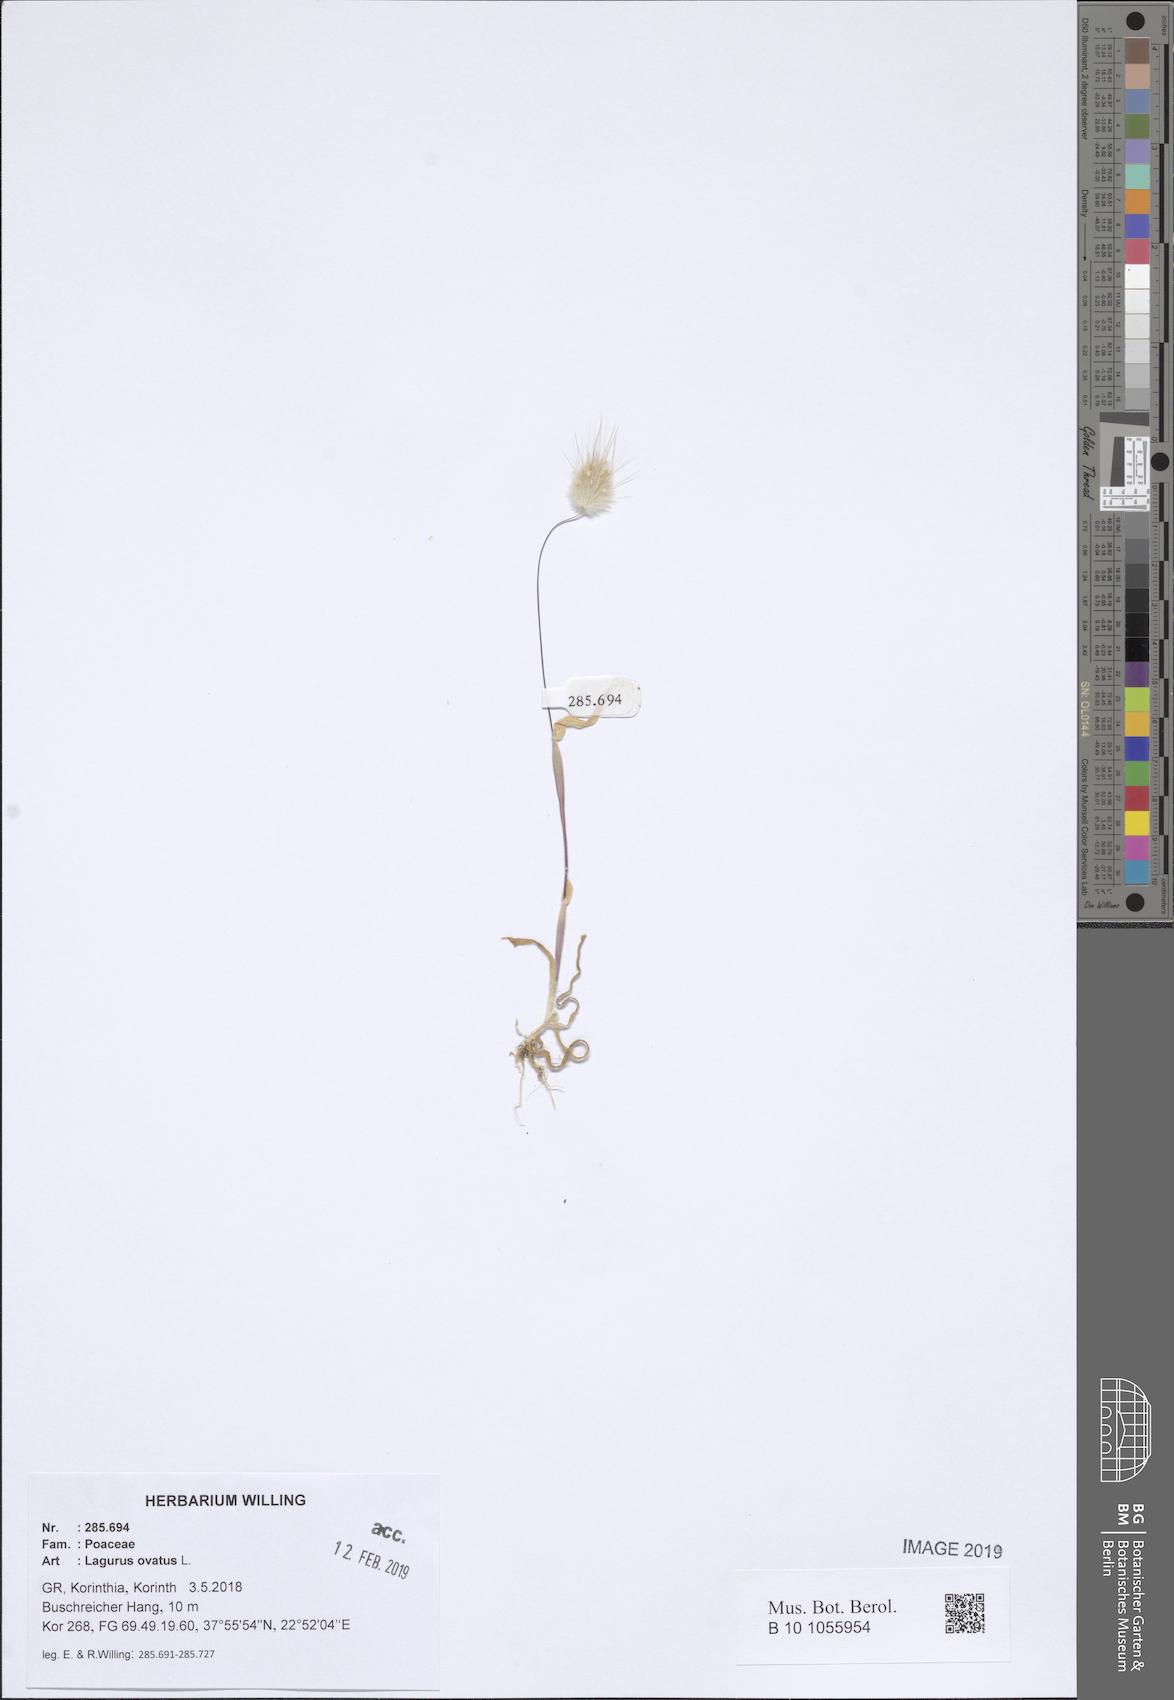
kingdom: Plantae
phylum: Tracheophyta
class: Liliopsida
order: Poales
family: Poaceae
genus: Lagurus
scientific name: Lagurus ovatus
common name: Hare's-tail
